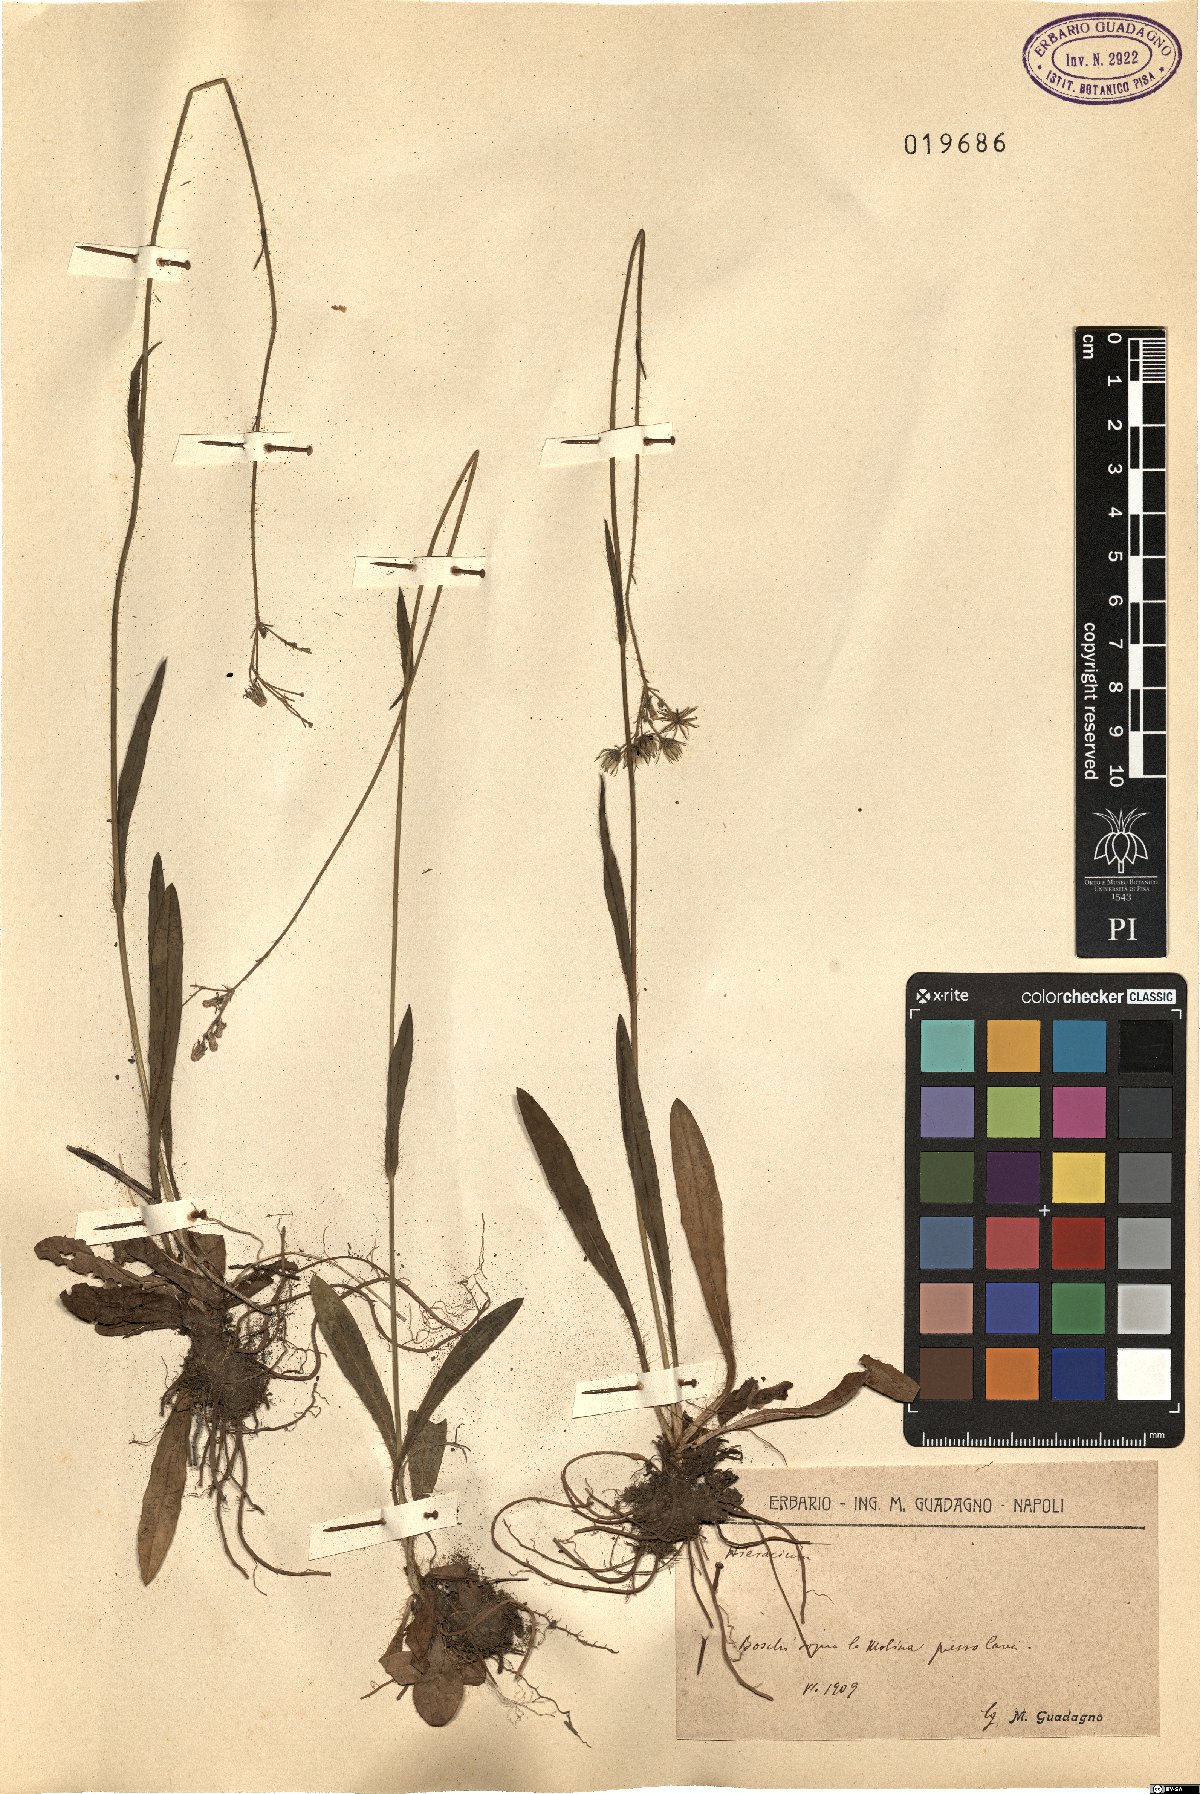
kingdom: Plantae
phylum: Tracheophyta
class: Magnoliopsida
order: Asterales
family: Asteraceae
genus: Hieracium
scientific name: Hieracium
